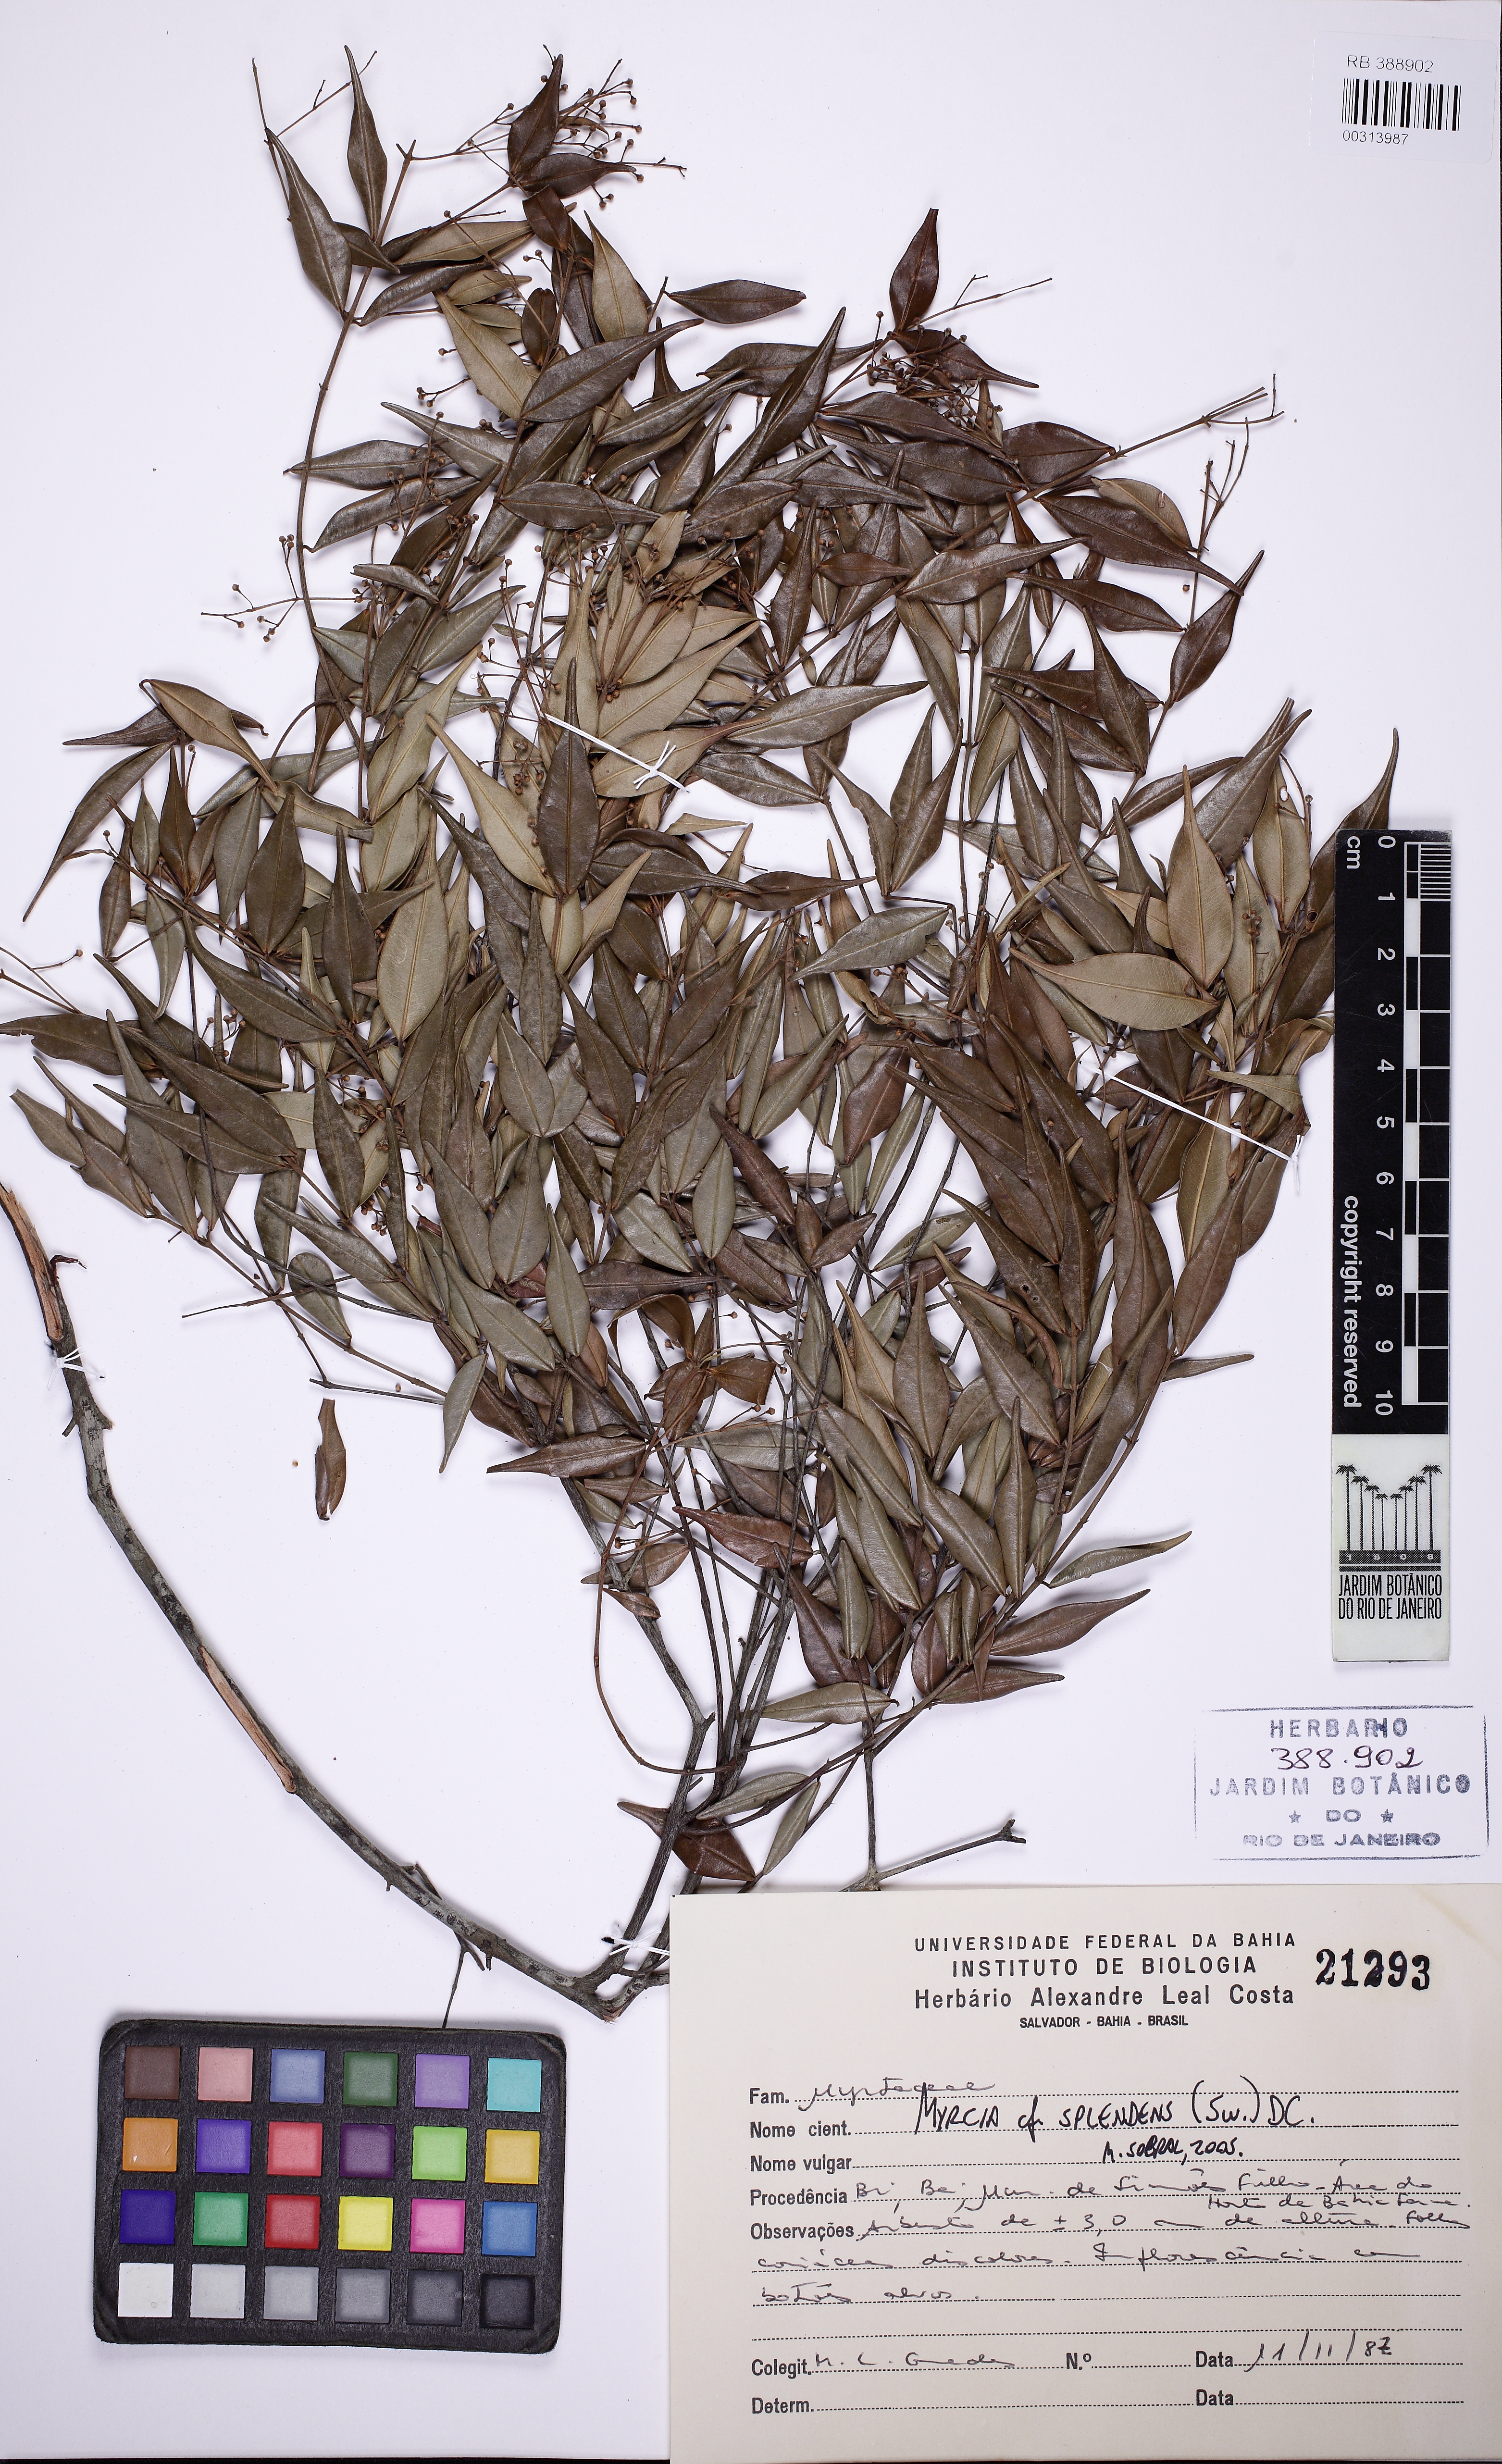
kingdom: Plantae
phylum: Tracheophyta
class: Magnoliopsida
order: Myrtales
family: Myrtaceae
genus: Myrcia
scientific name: Myrcia splendens
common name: Surinam cherry
